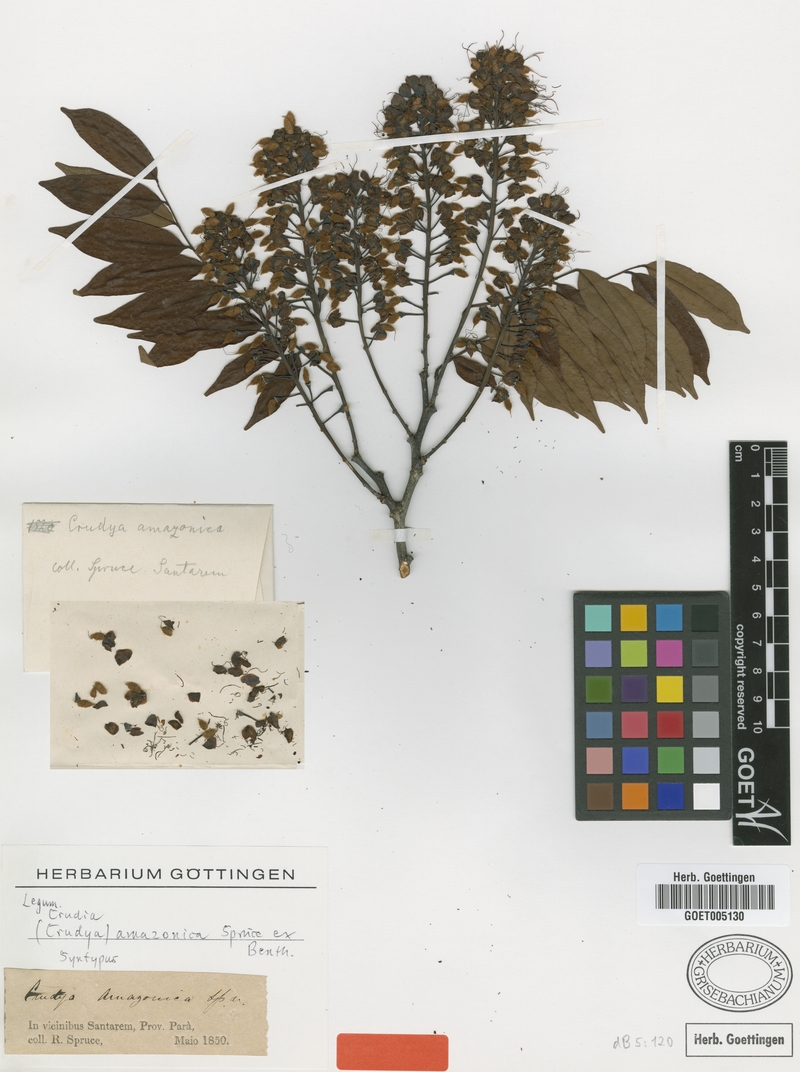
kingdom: Plantae
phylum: Tracheophyta
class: Magnoliopsida
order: Fabales
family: Fabaceae
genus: Crudia
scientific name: Crudia amazonica
